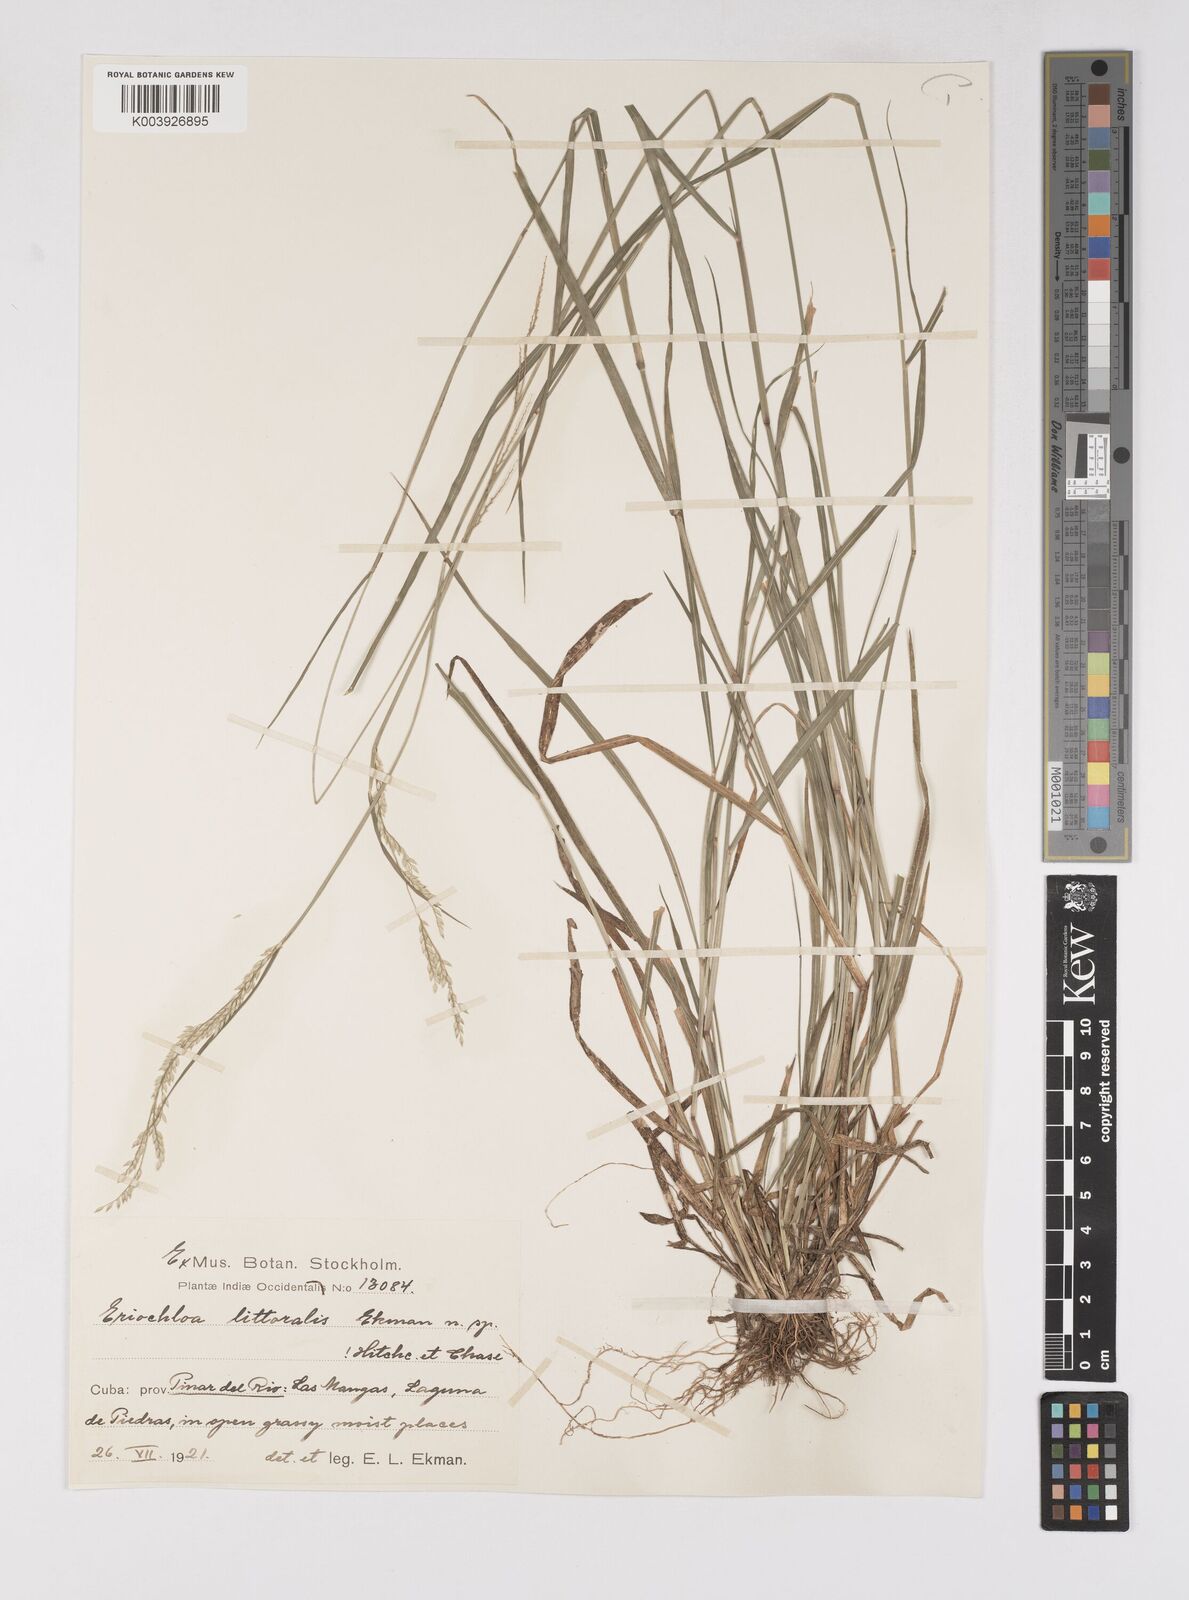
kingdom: Plantae
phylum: Tracheophyta
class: Liliopsida
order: Poales
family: Poaceae
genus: Eriochloa
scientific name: Eriochloa procera
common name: Spring grass
